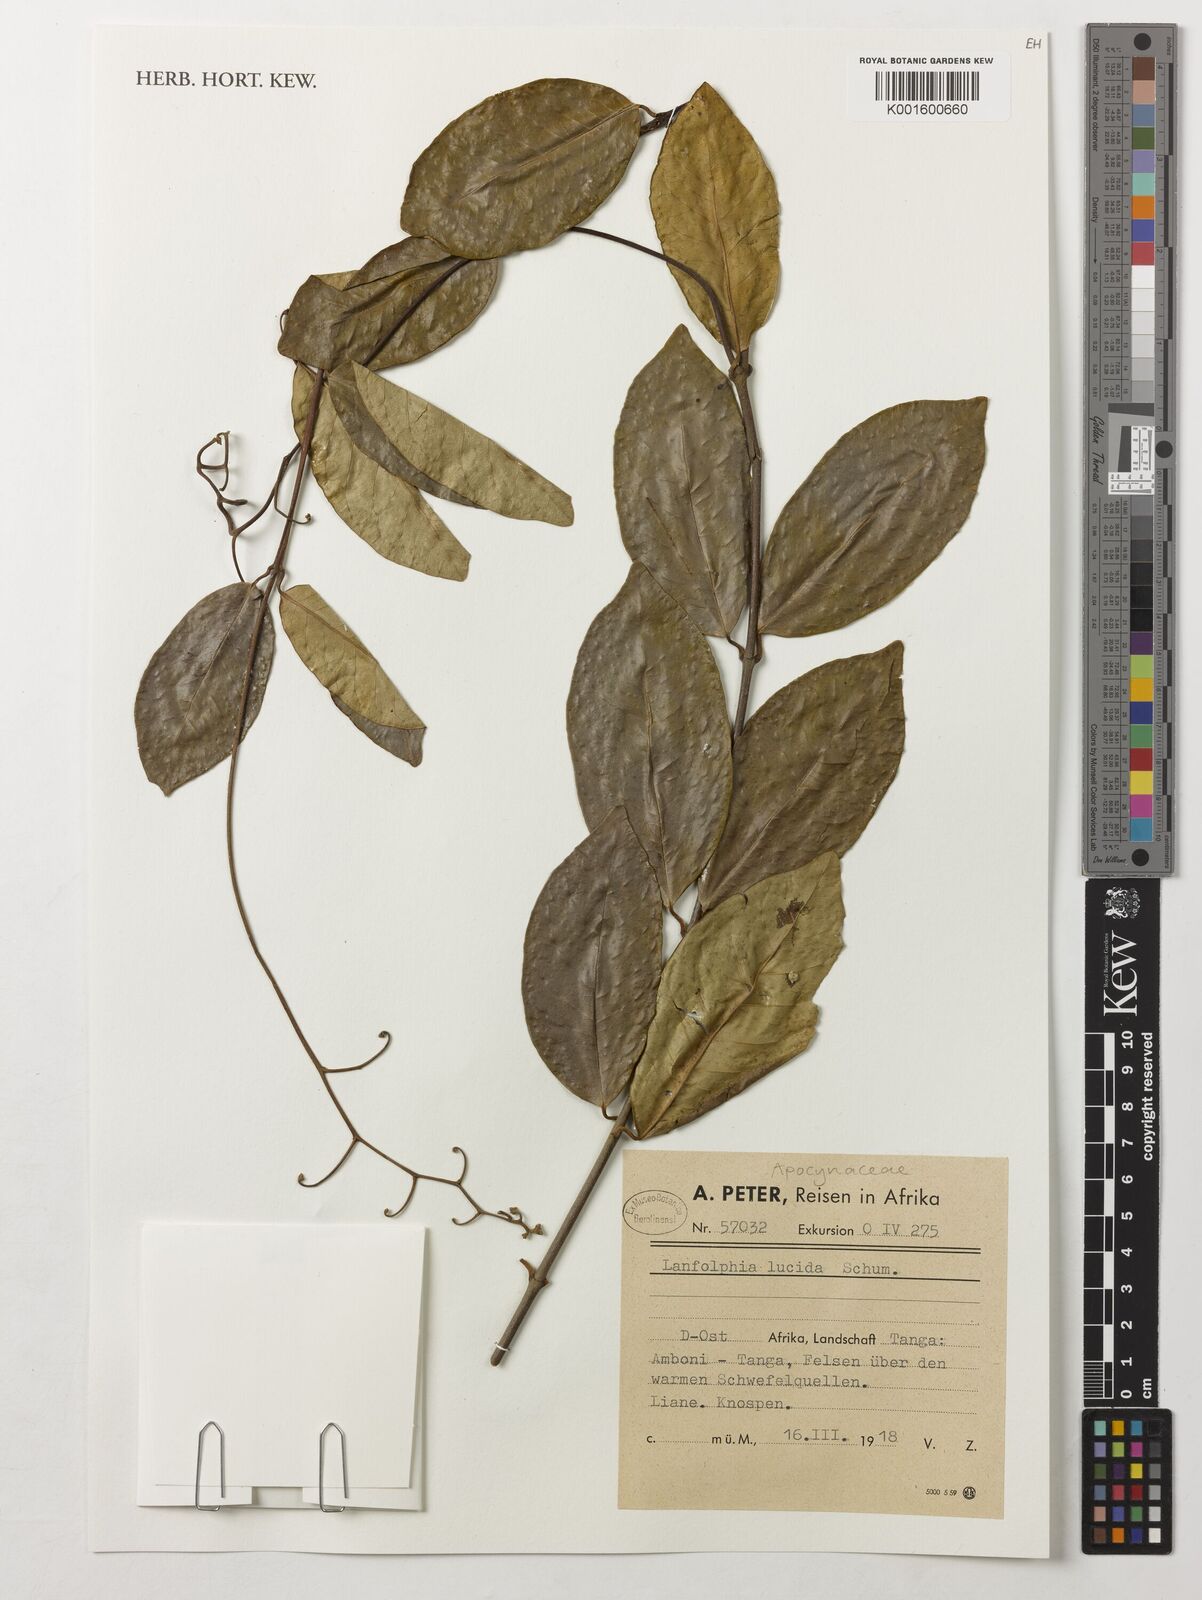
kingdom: Plantae
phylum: Tracheophyta
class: Magnoliopsida
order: Gentianales
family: Apocynaceae
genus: Dictyophleba
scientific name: Dictyophleba lucida
